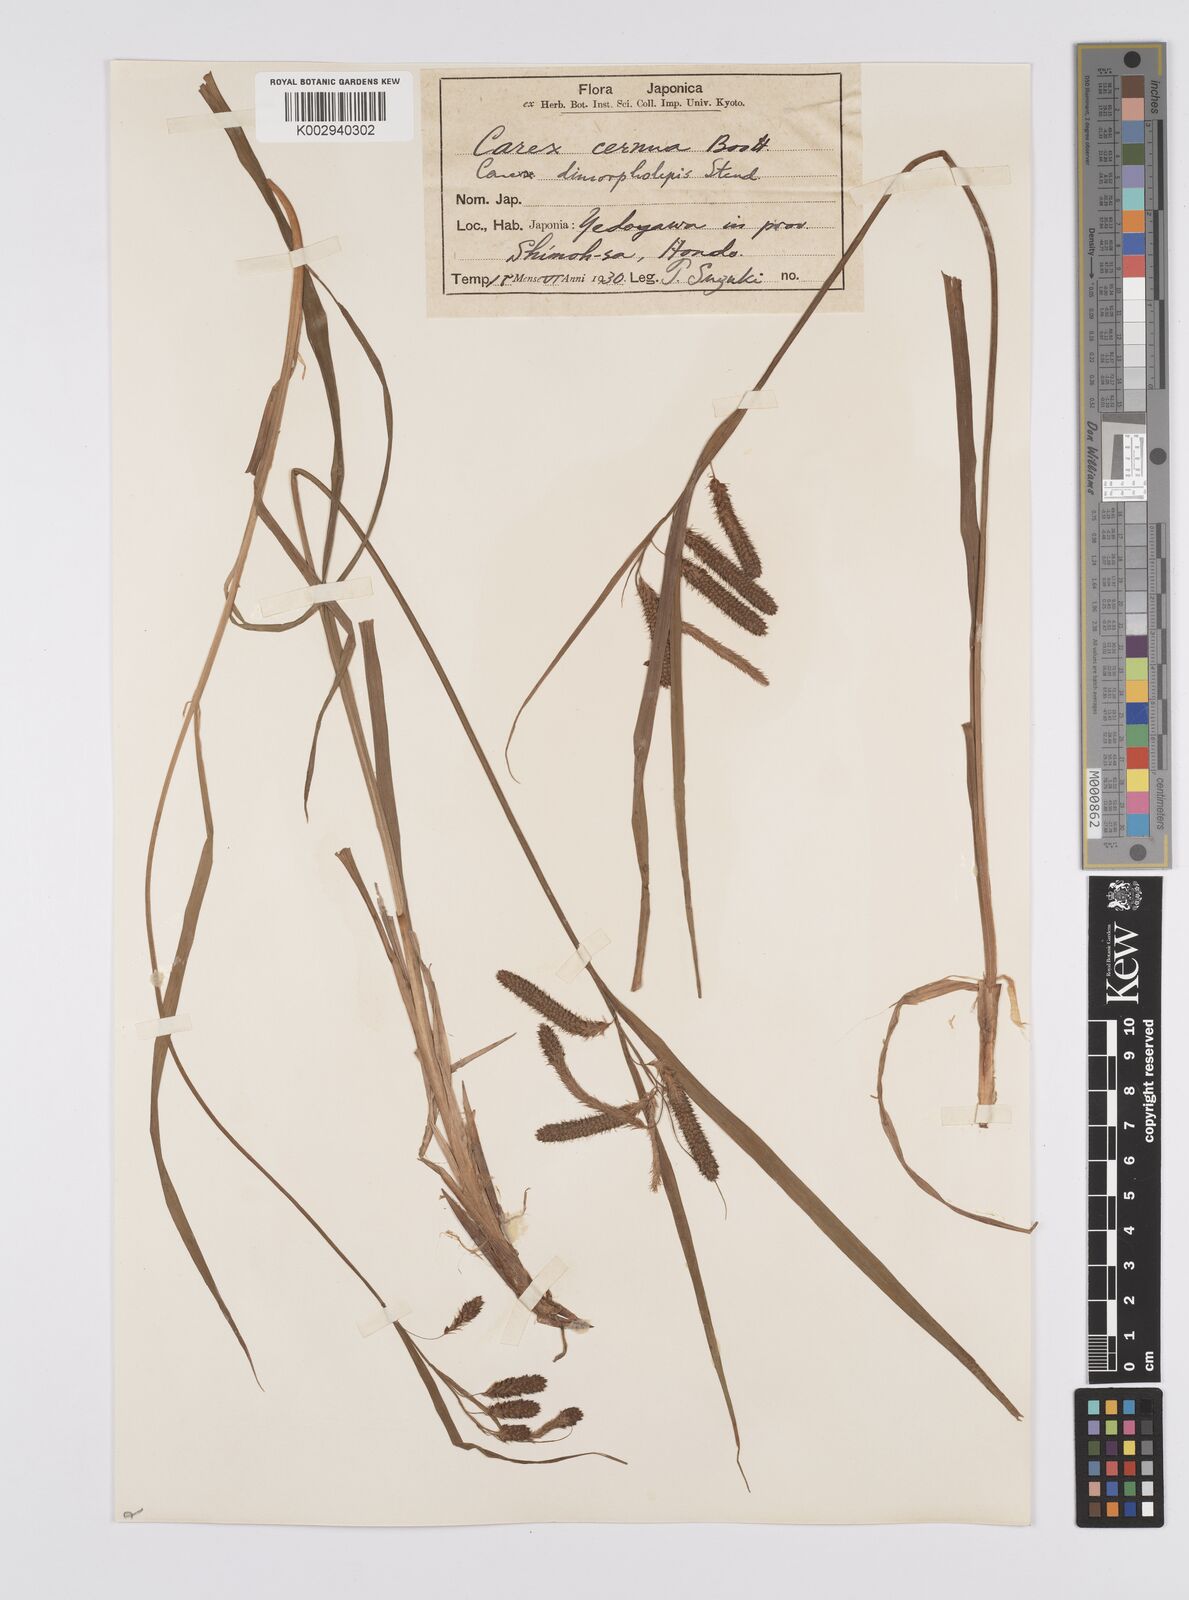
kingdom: Plantae
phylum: Tracheophyta
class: Liliopsida
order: Poales
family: Cyperaceae
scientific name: Cyperaceae
